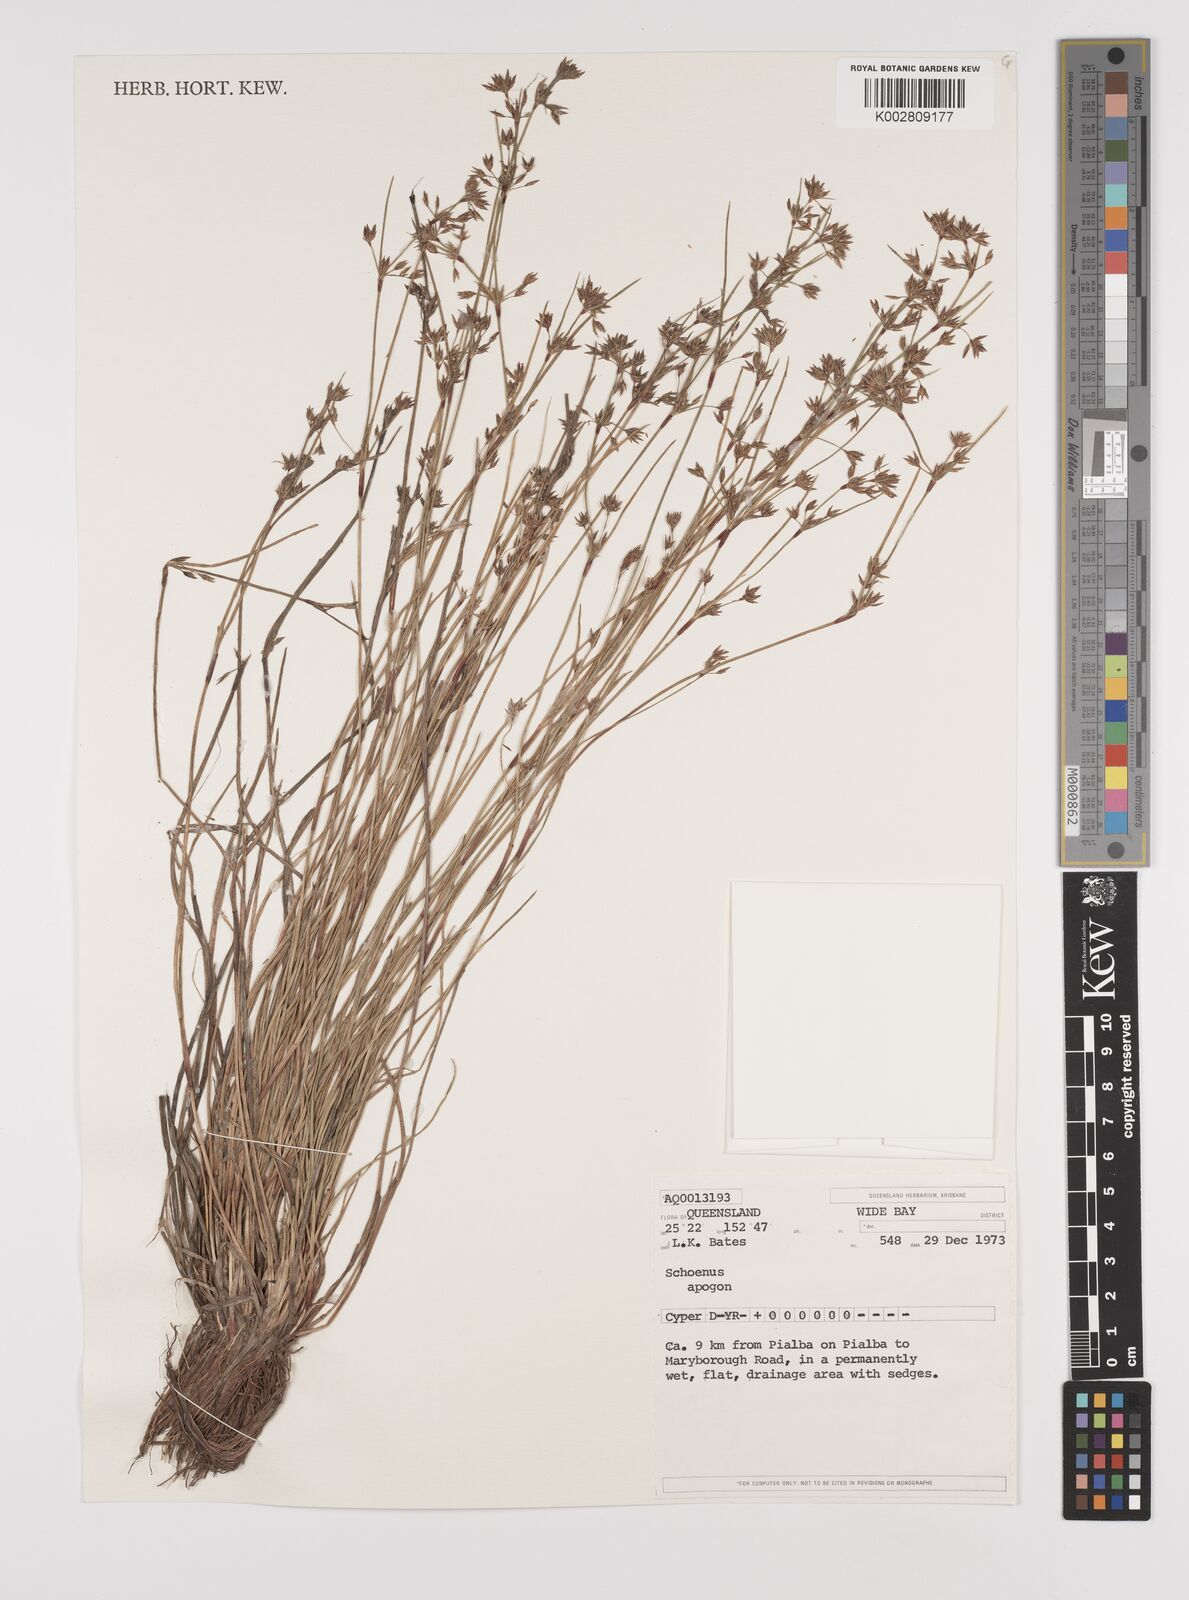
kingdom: Plantae
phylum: Tracheophyta
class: Liliopsida
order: Poales
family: Cyperaceae
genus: Schoenus
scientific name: Schoenus apogon
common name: Smooth bogrush
